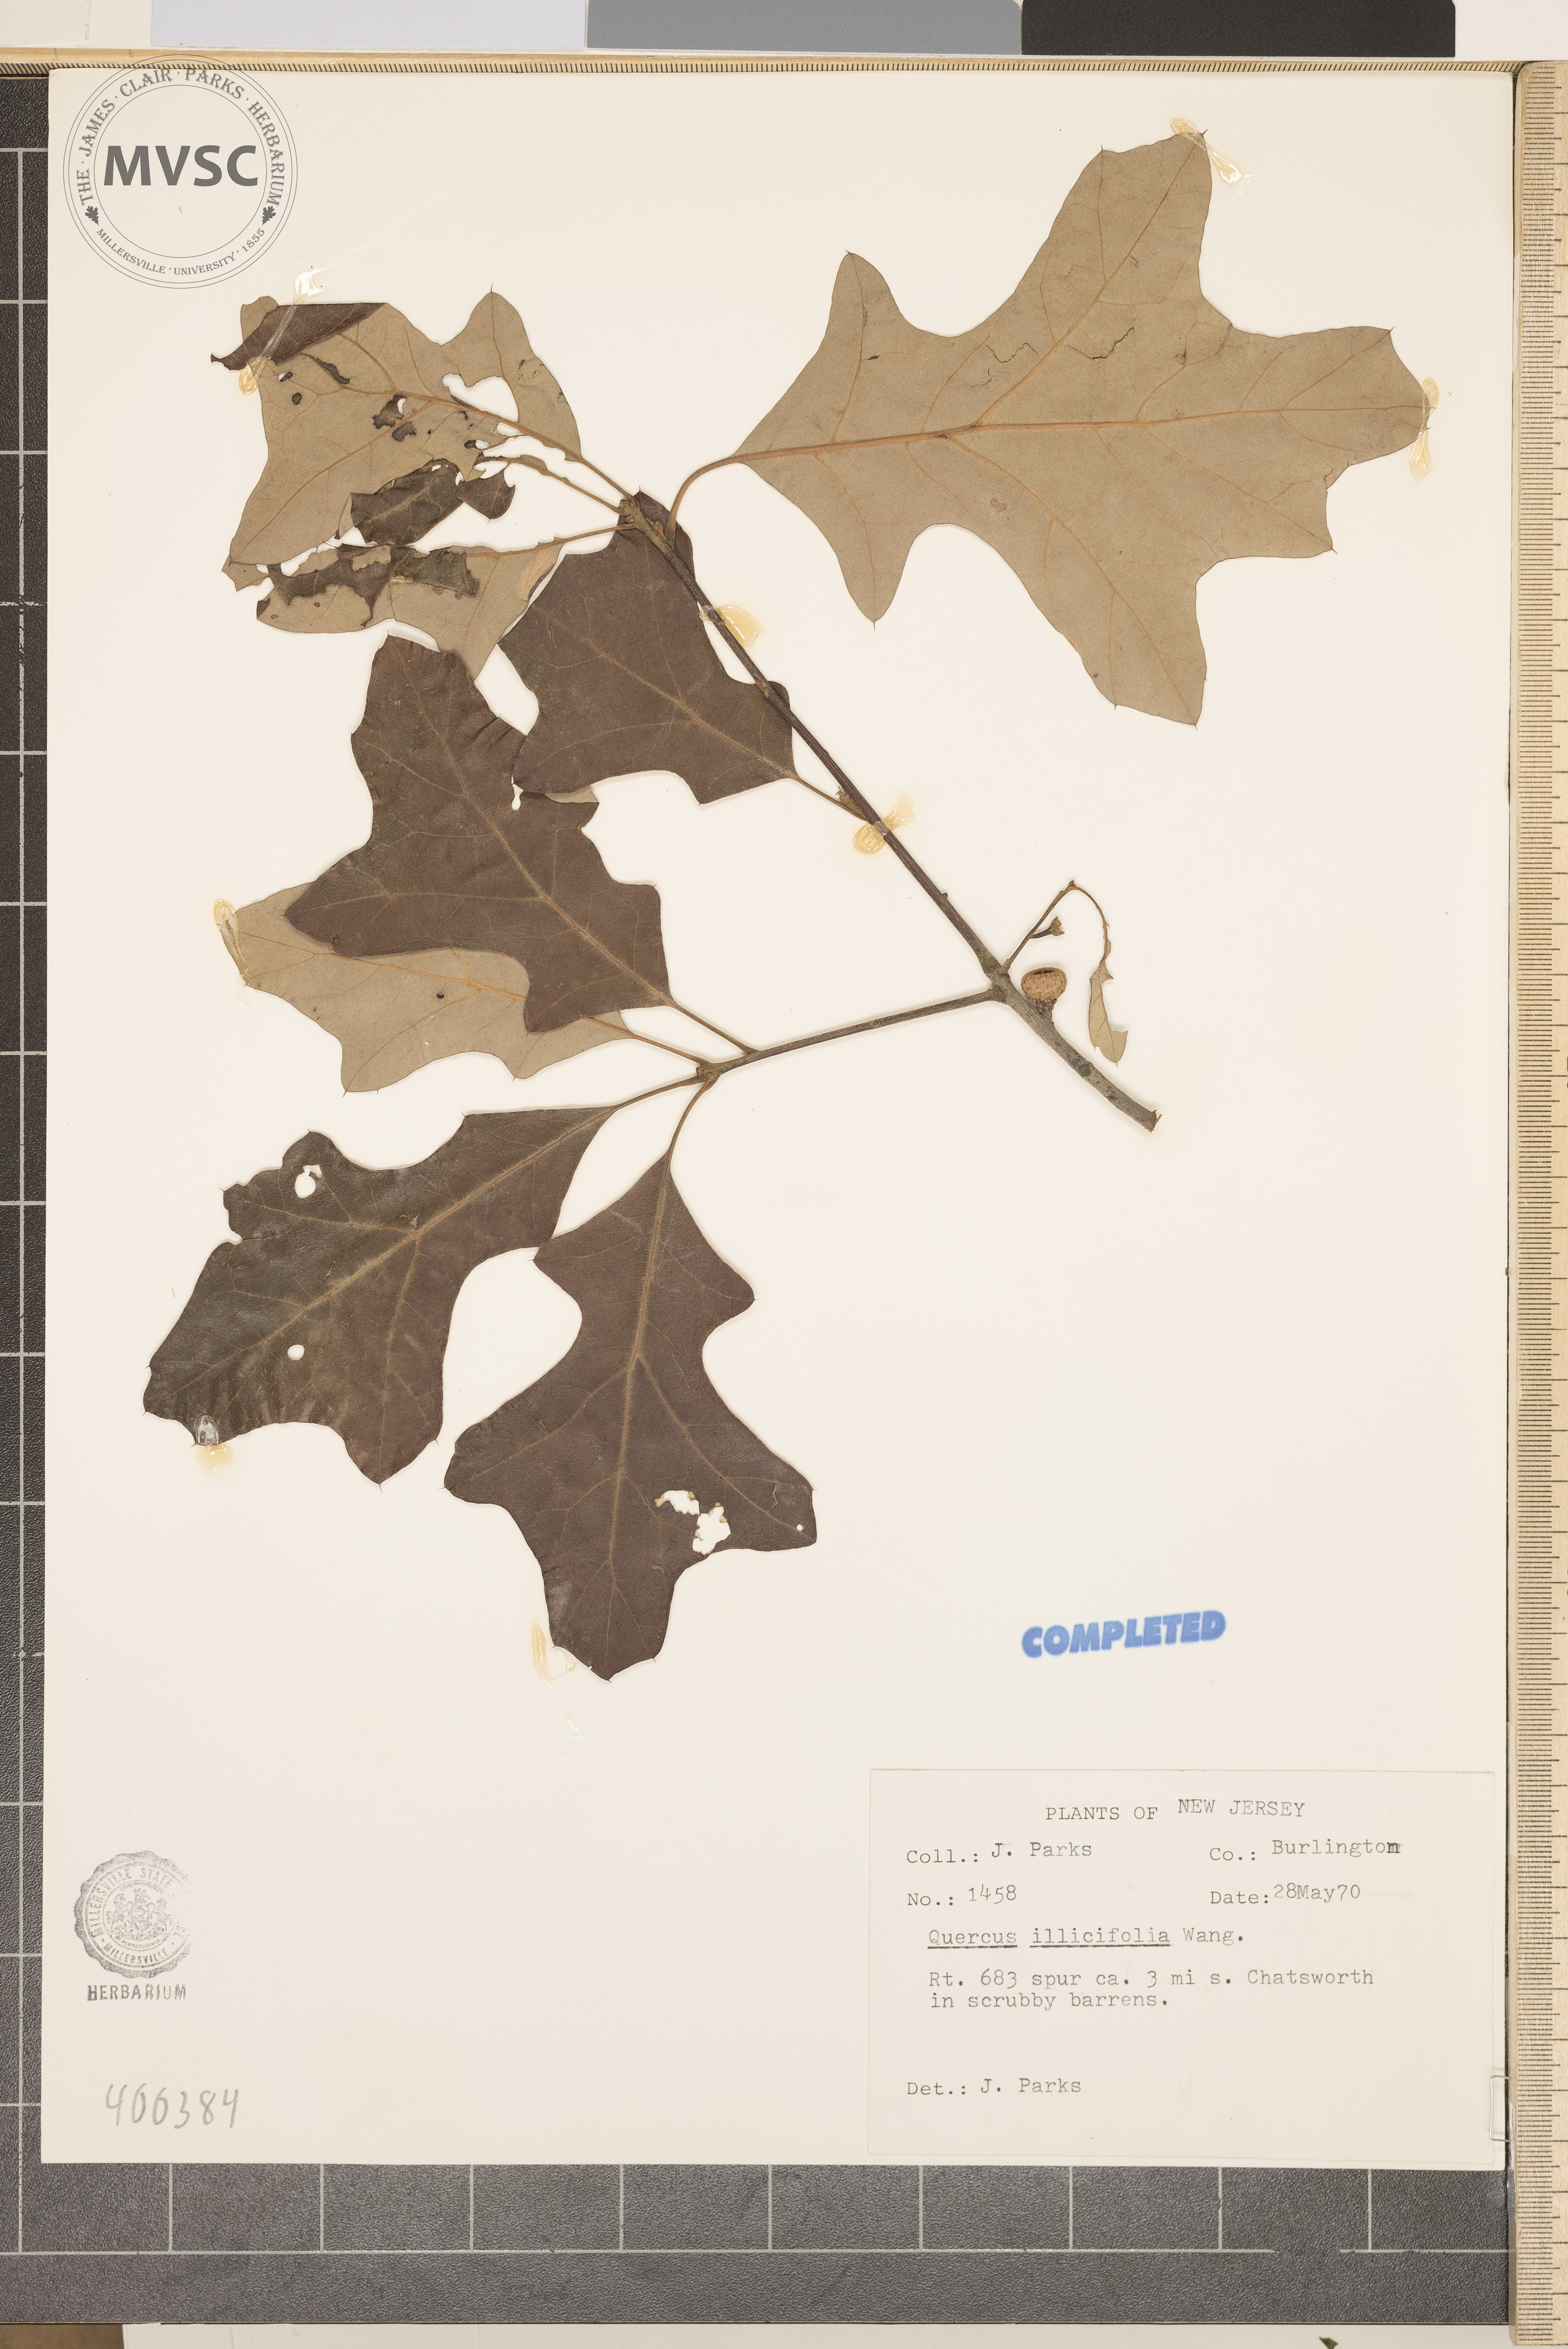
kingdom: Plantae
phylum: Tracheophyta
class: Magnoliopsida
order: Fagales
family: Fagaceae
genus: Quercus
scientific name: Quercus ilicifolia
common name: Bear oak
